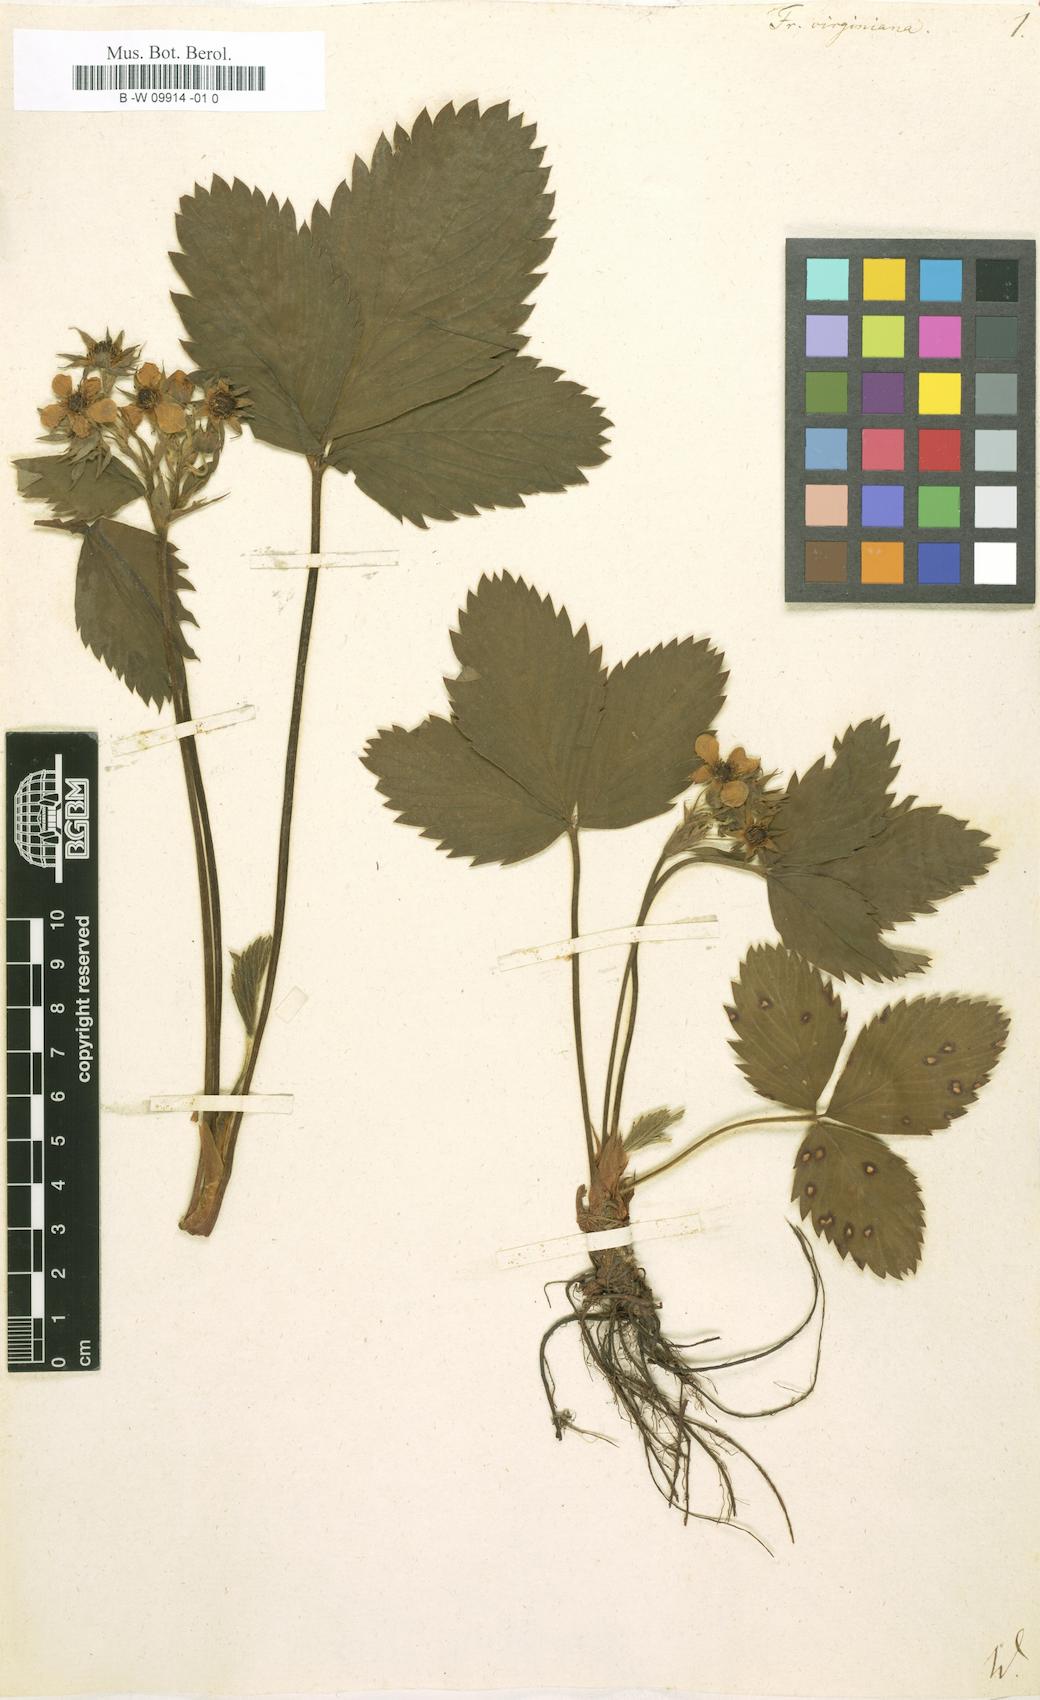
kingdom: Plantae
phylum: Tracheophyta
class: Magnoliopsida
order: Rosales
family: Rosaceae
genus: Fragaria
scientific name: Fragaria virginiana
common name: Thickleaved wild strawberry
